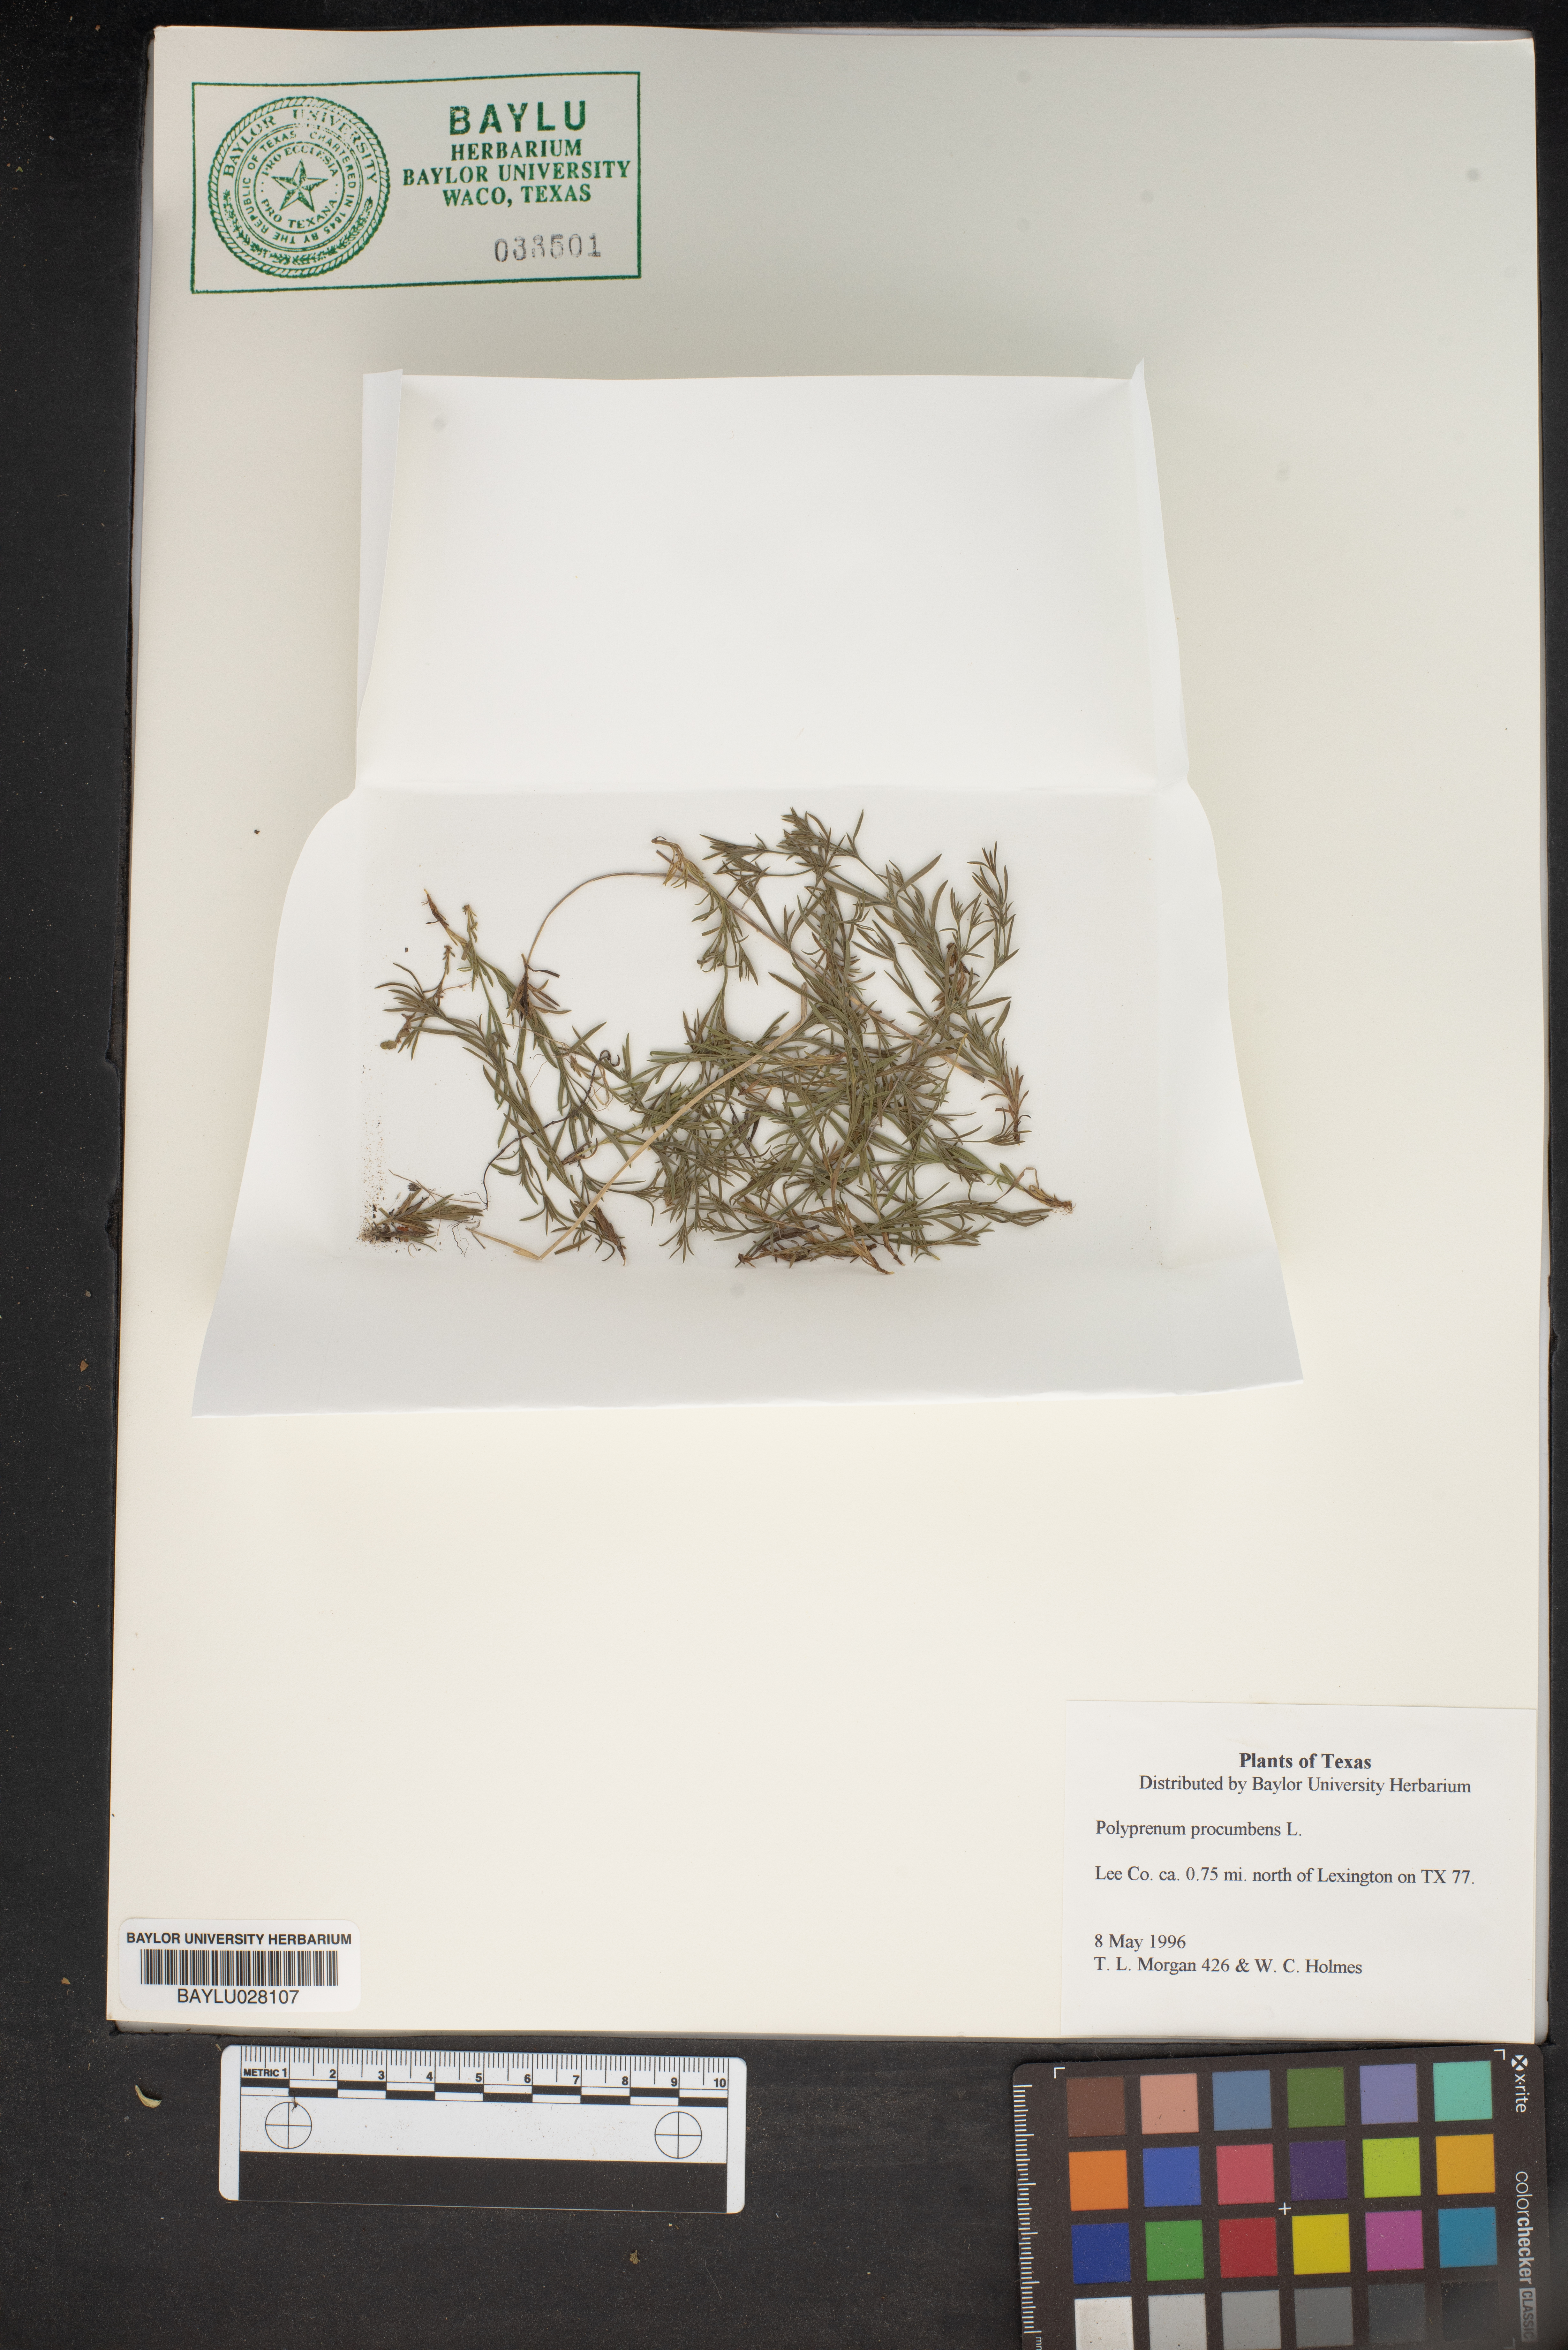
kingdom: Plantae
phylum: Tracheophyta
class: Magnoliopsida
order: Lamiales
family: Tetrachondraceae
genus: Polypremum
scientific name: Polypremum procumbens
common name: Juniper-leaf
